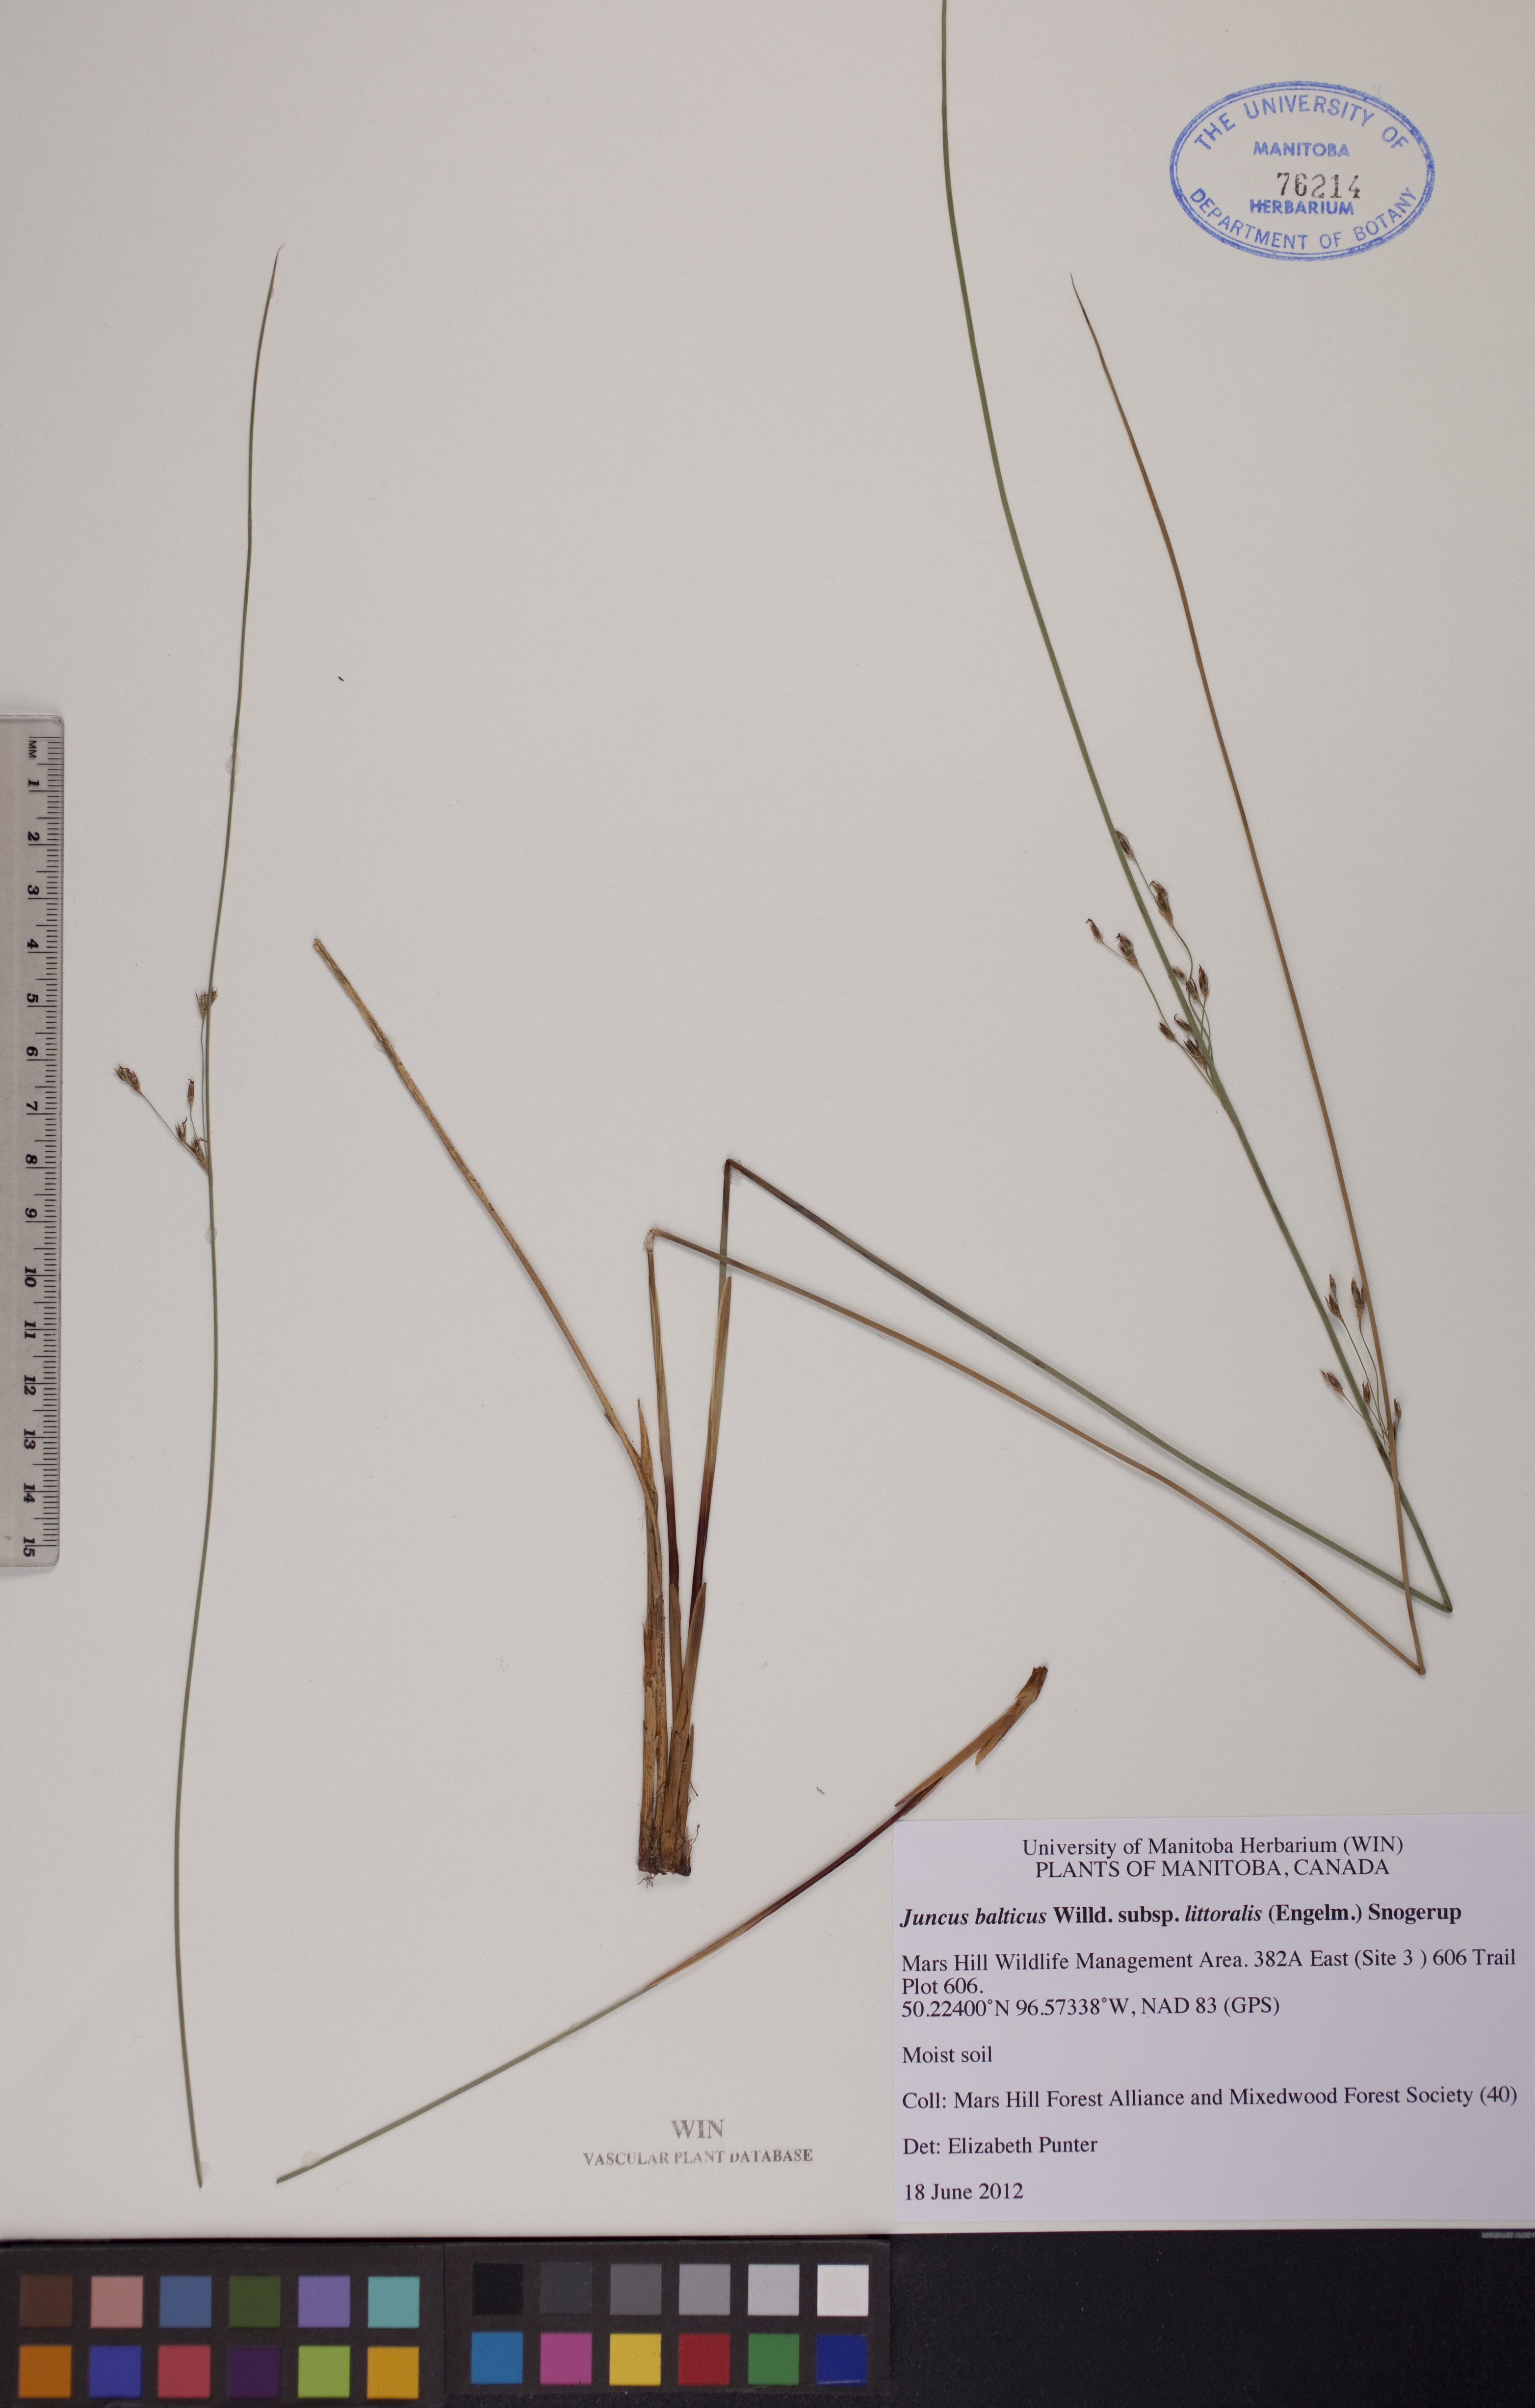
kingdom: Plantae
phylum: Tracheophyta
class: Liliopsida
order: Poales
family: Juncaceae
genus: Juncus
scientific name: Juncus balticus
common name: Baltic rush
